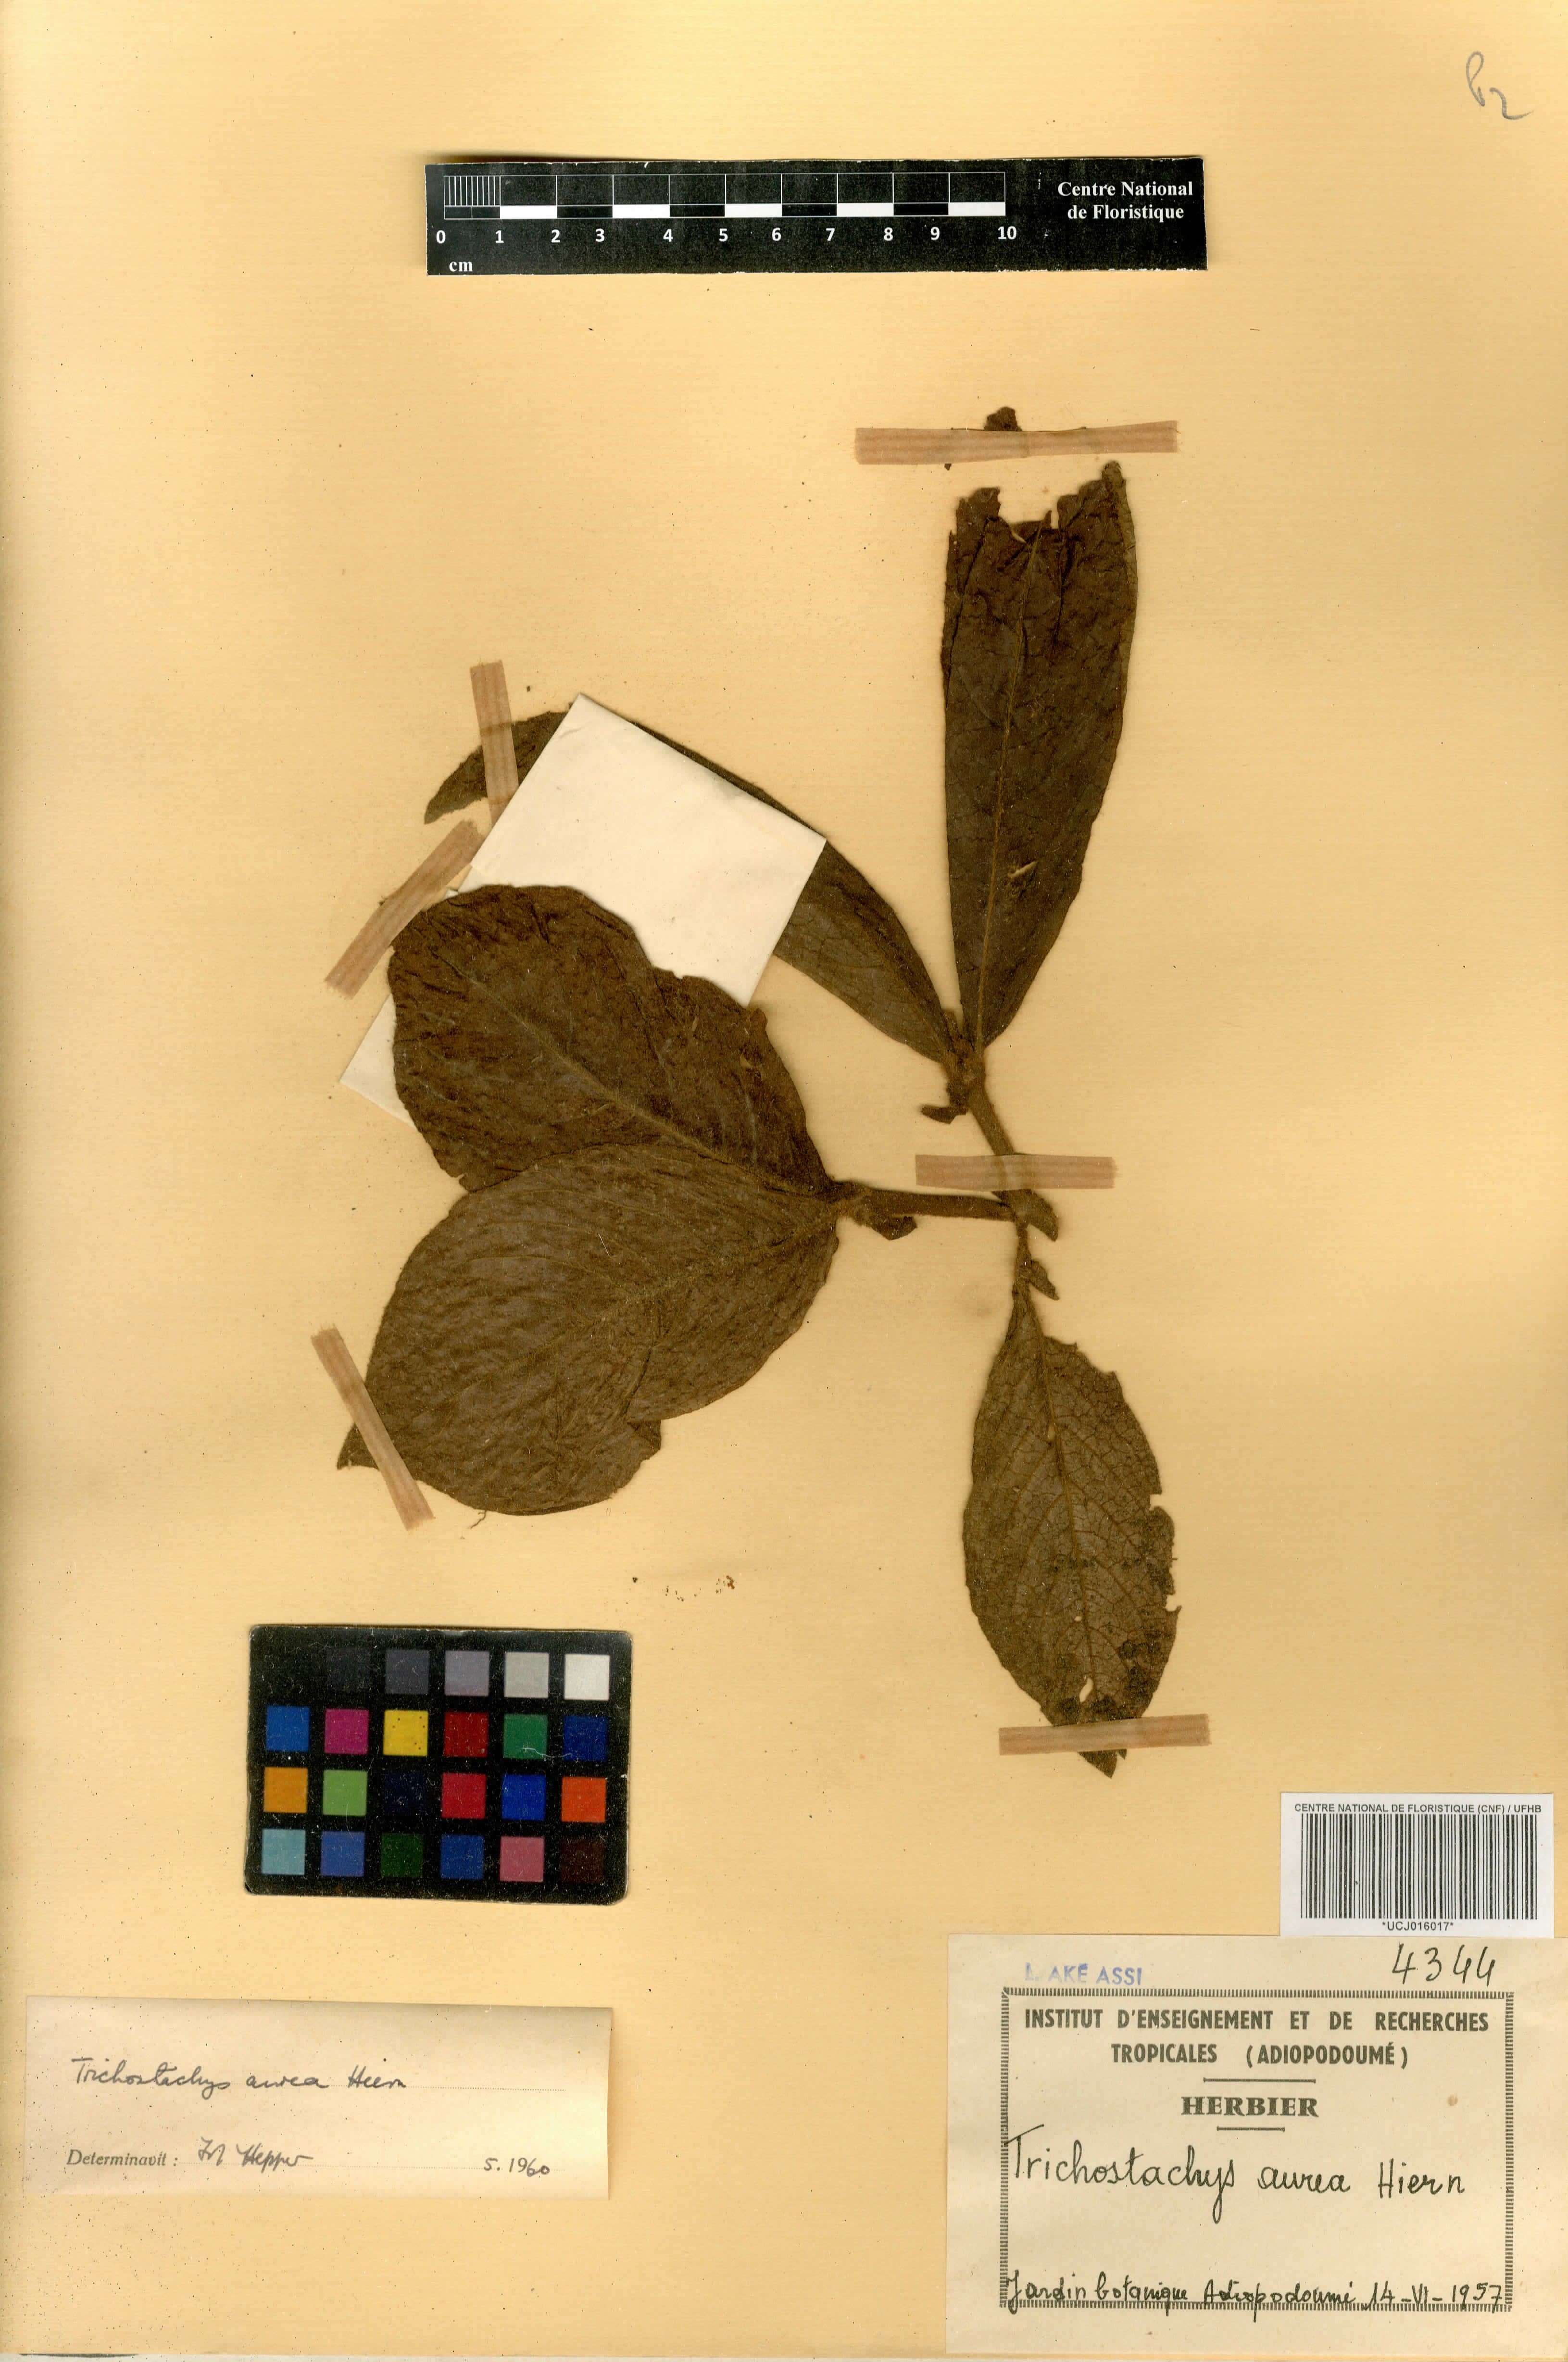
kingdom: Plantae
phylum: Tracheophyta
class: Magnoliopsida
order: Gentianales
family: Rubiaceae
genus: Trichostachys
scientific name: Trichostachys aurea
